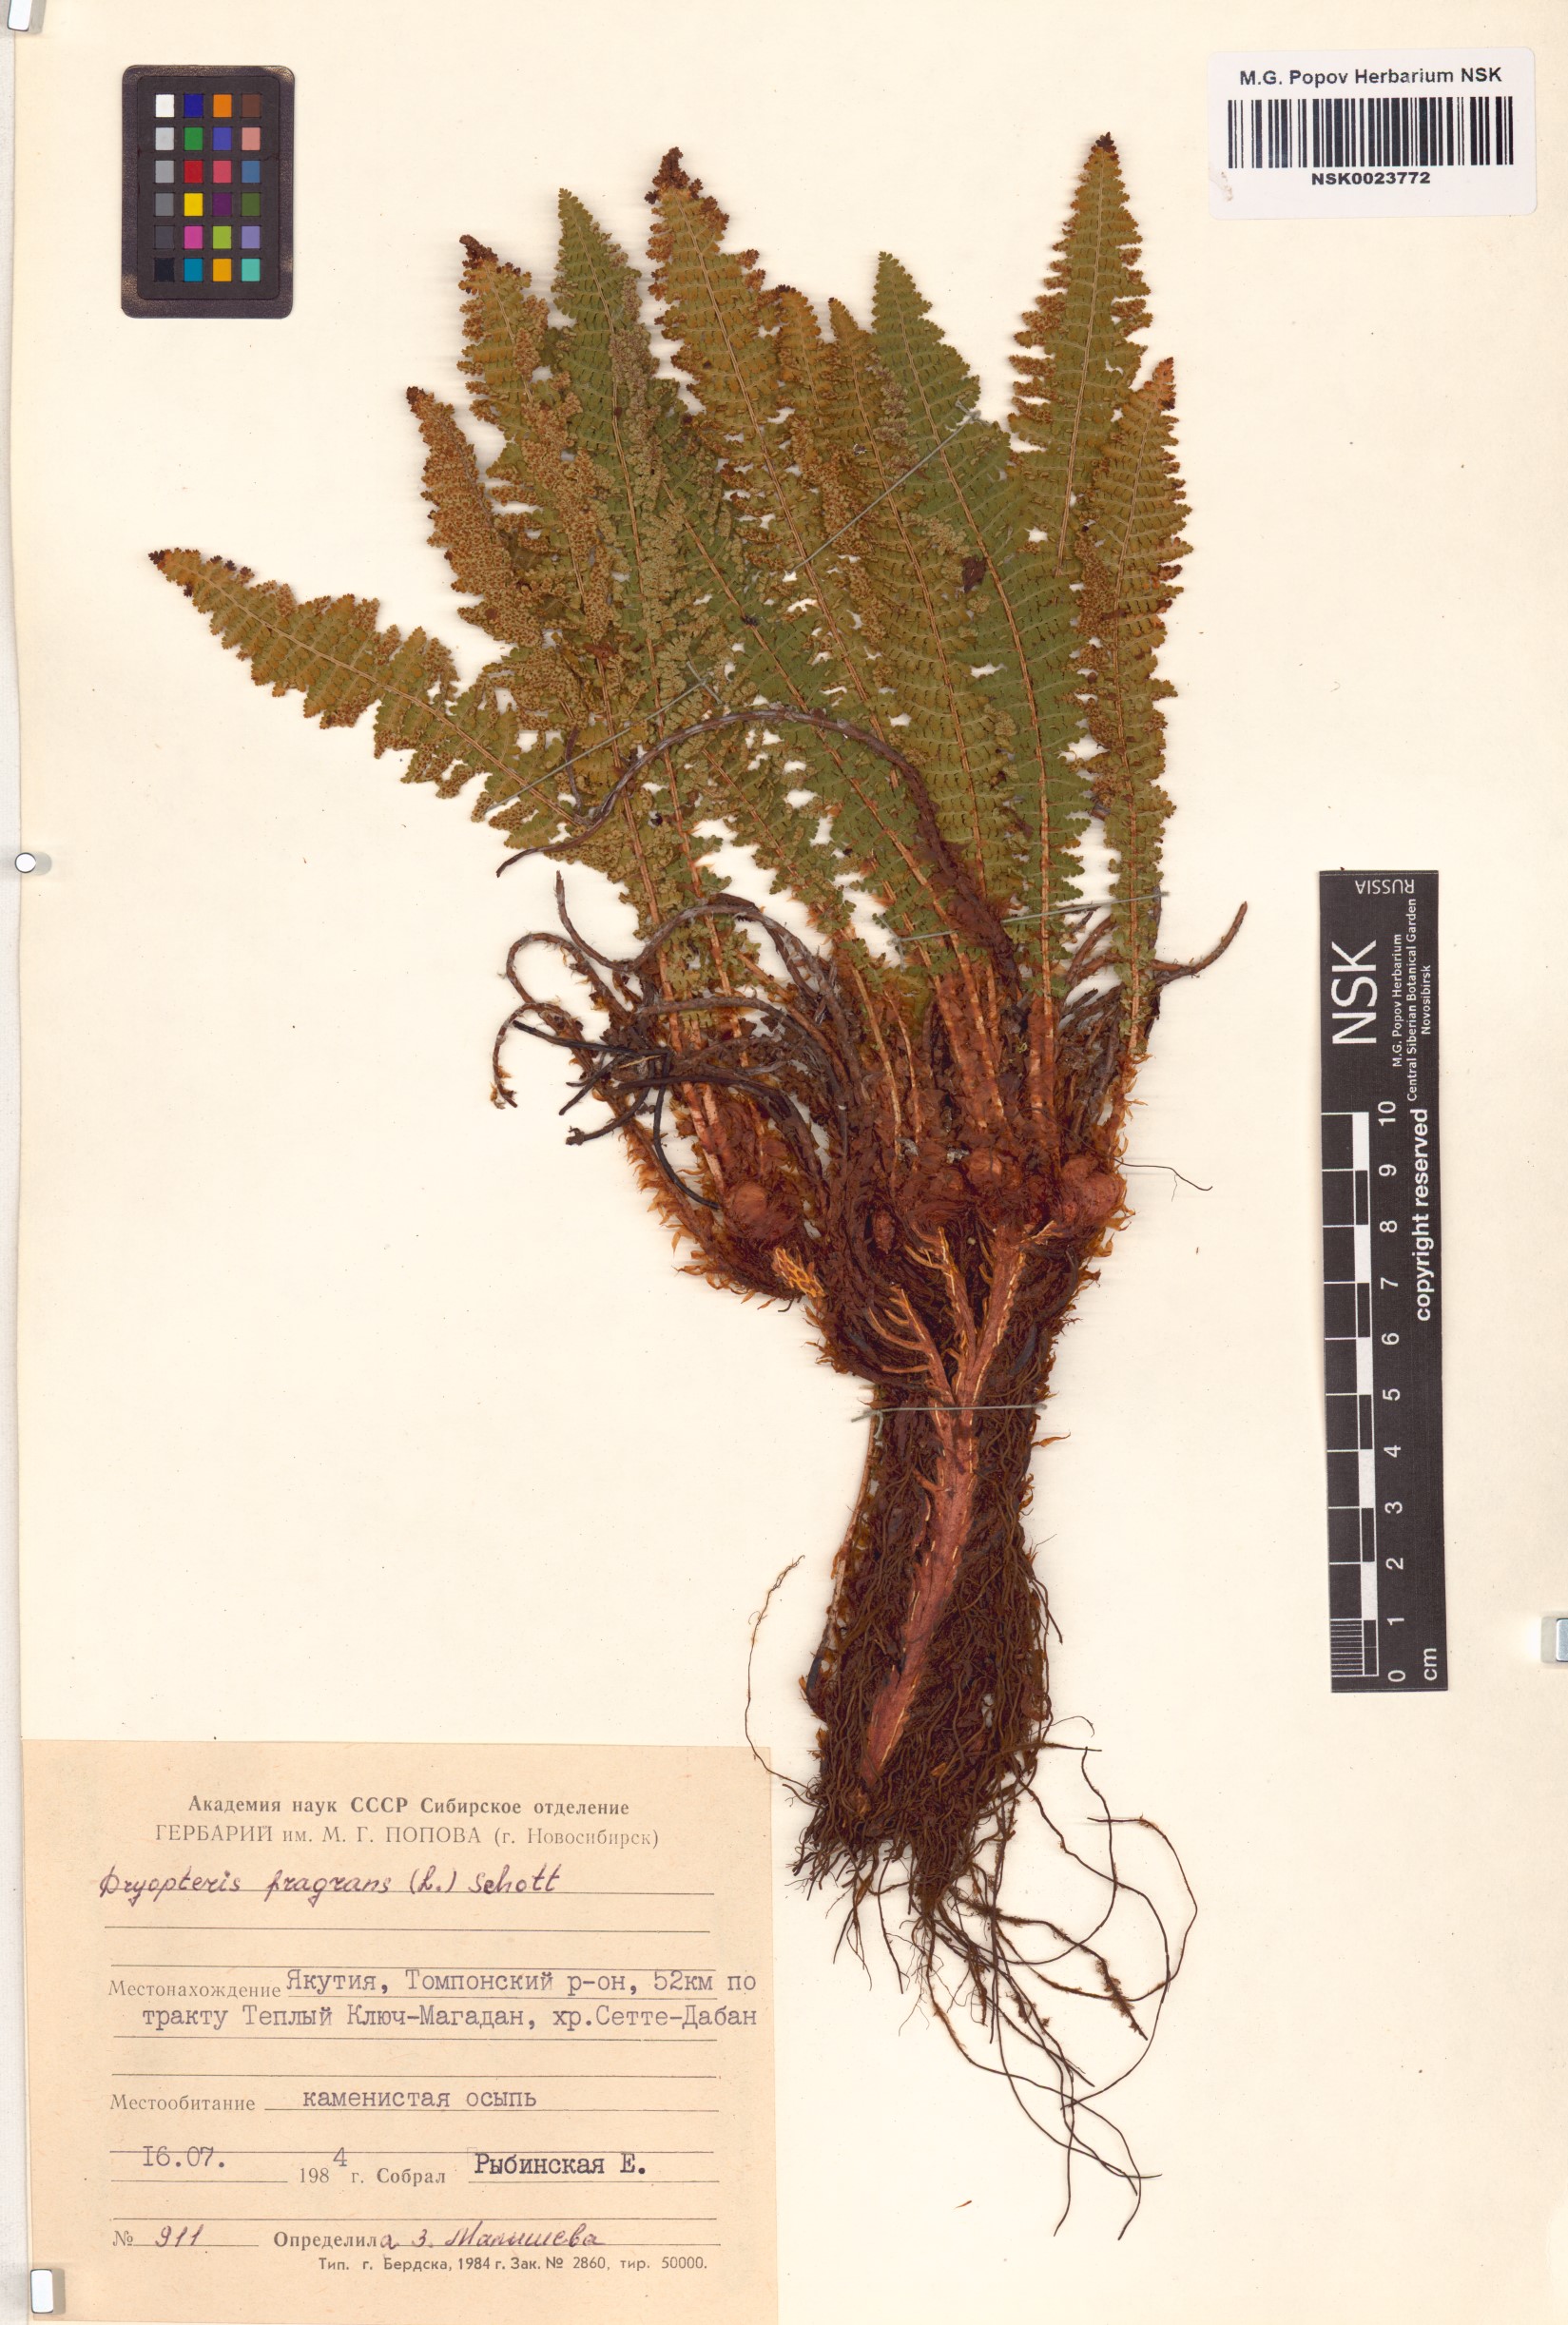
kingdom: Plantae
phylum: Tracheophyta
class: Polypodiopsida
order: Polypodiales
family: Dryopteridaceae
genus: Dryopteris
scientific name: Dryopteris fragrans
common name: Fragrant wood fern
